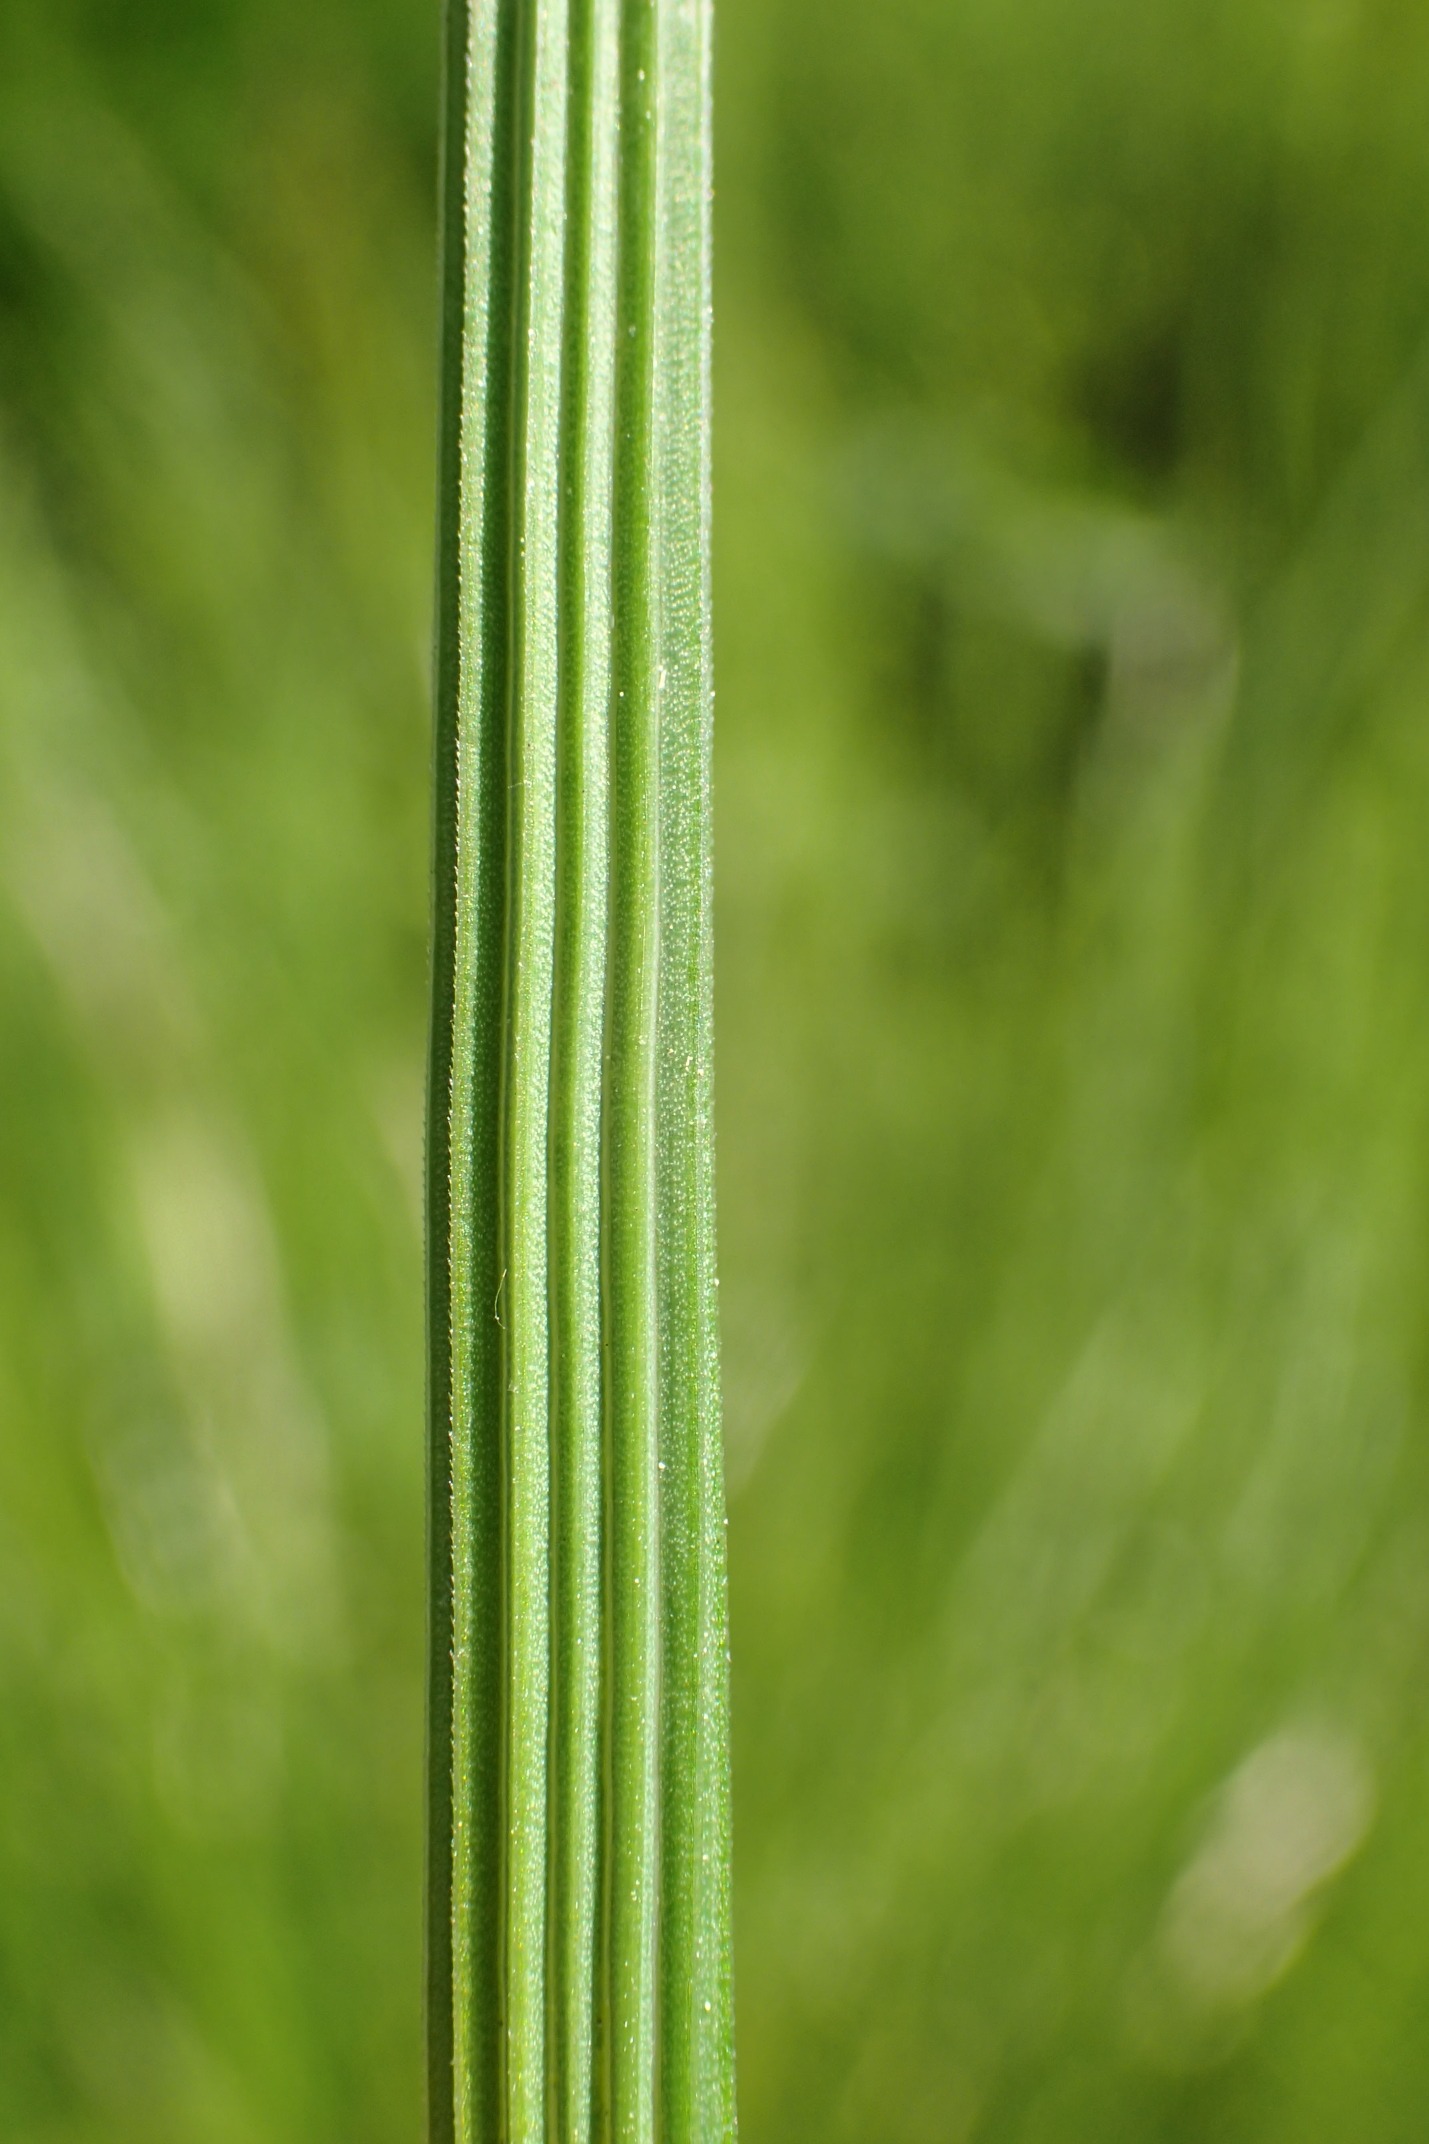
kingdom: Plantae
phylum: Tracheophyta
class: Liliopsida
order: Poales
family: Poaceae
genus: Deschampsia
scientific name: Deschampsia cespitosa
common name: Mose-bunke
